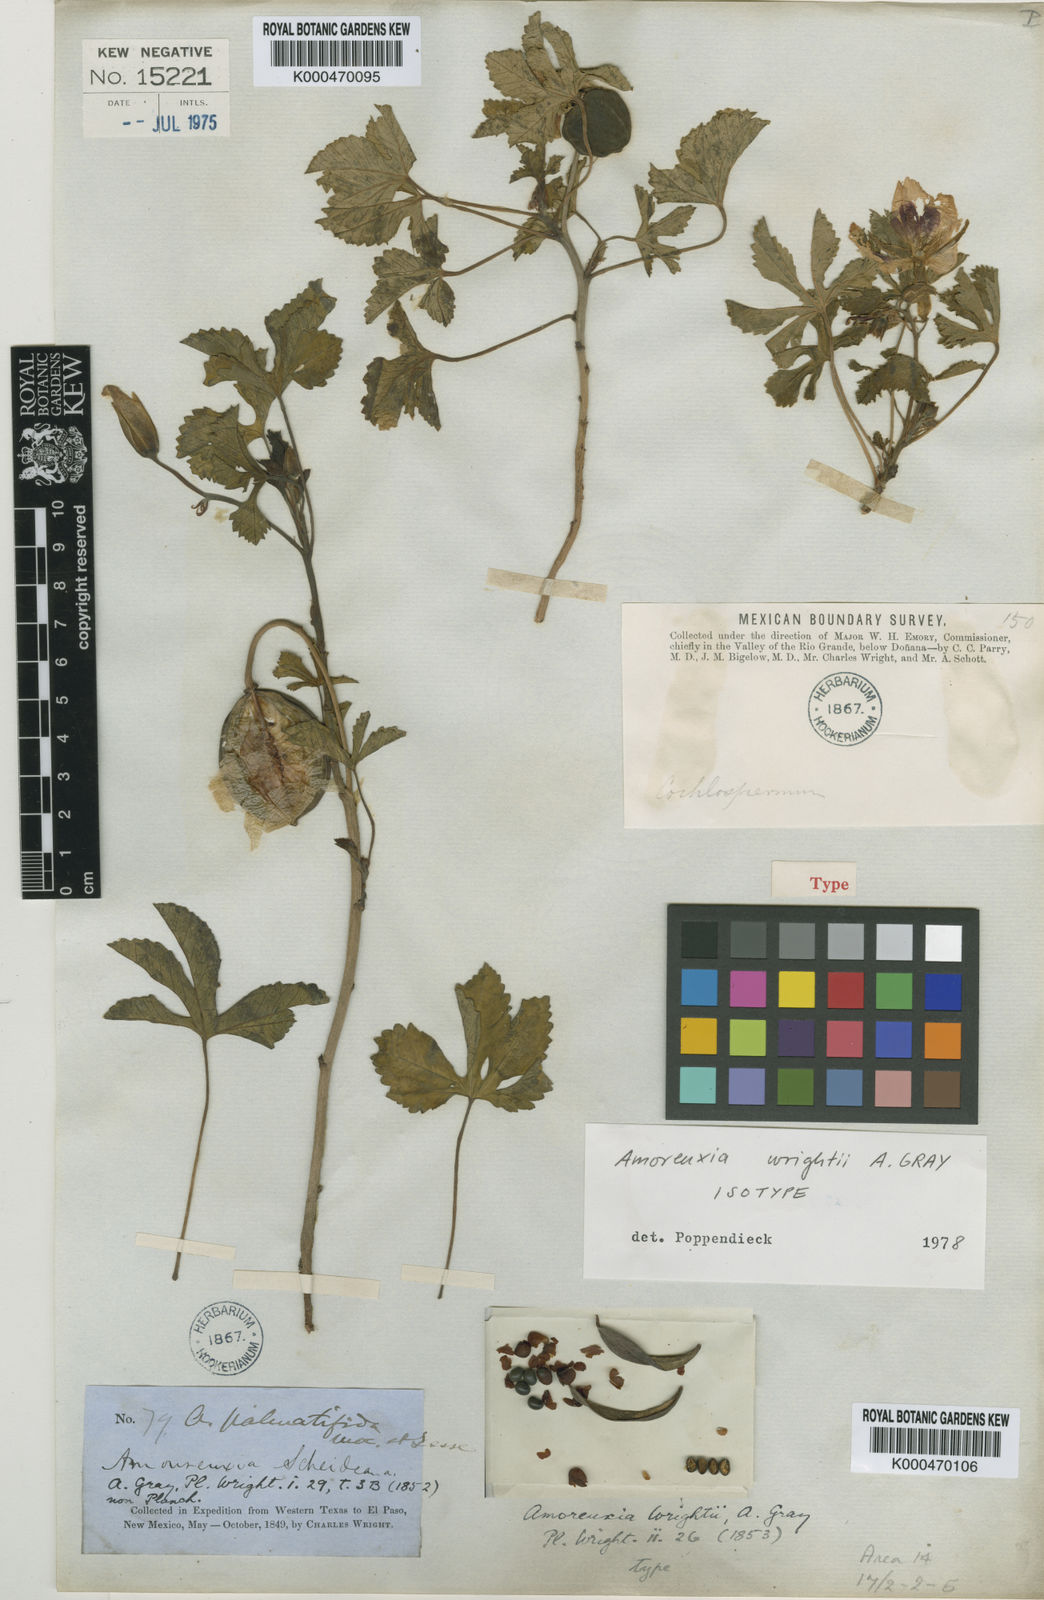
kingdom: Plantae
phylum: Tracheophyta
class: Magnoliopsida
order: Malvales
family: Cochlospermaceae
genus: Cochlospermum
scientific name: Cochlospermum wrightii
